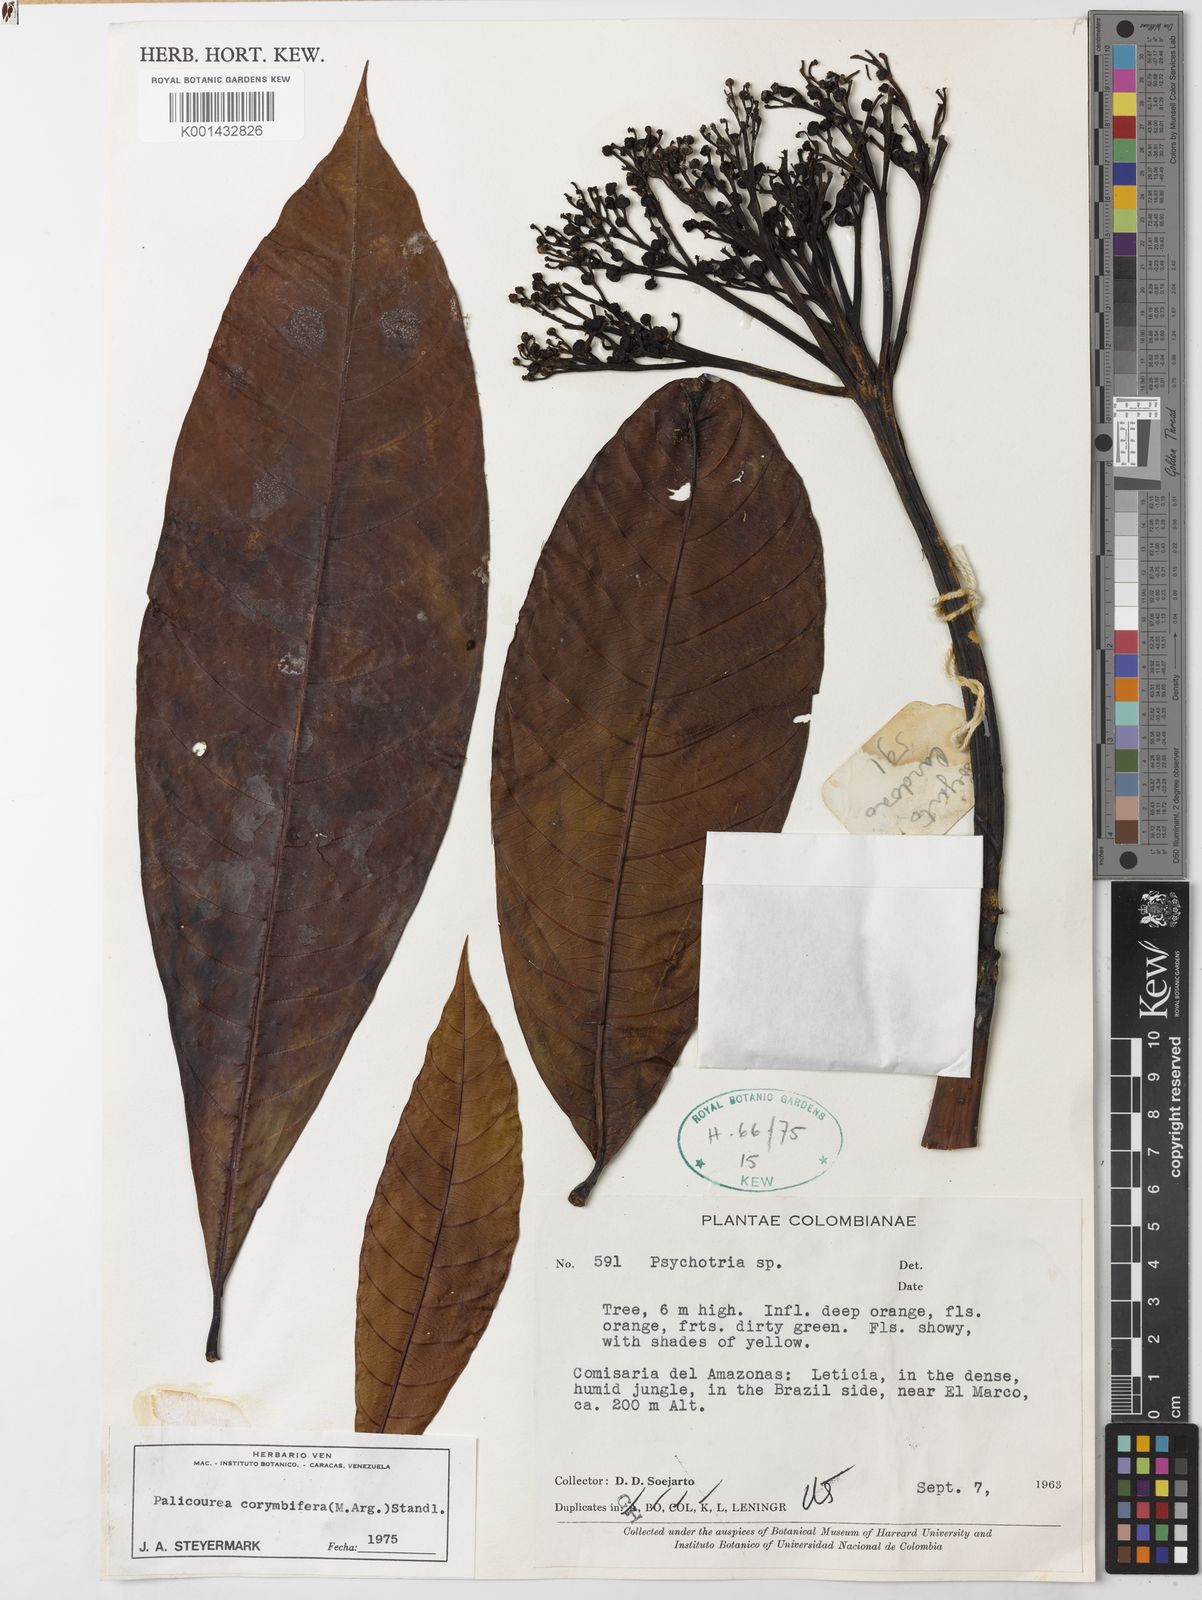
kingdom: Plantae
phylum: Tracheophyta
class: Magnoliopsida
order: Gentianales
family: Rubiaceae
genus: Palicourea
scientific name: Palicourea
